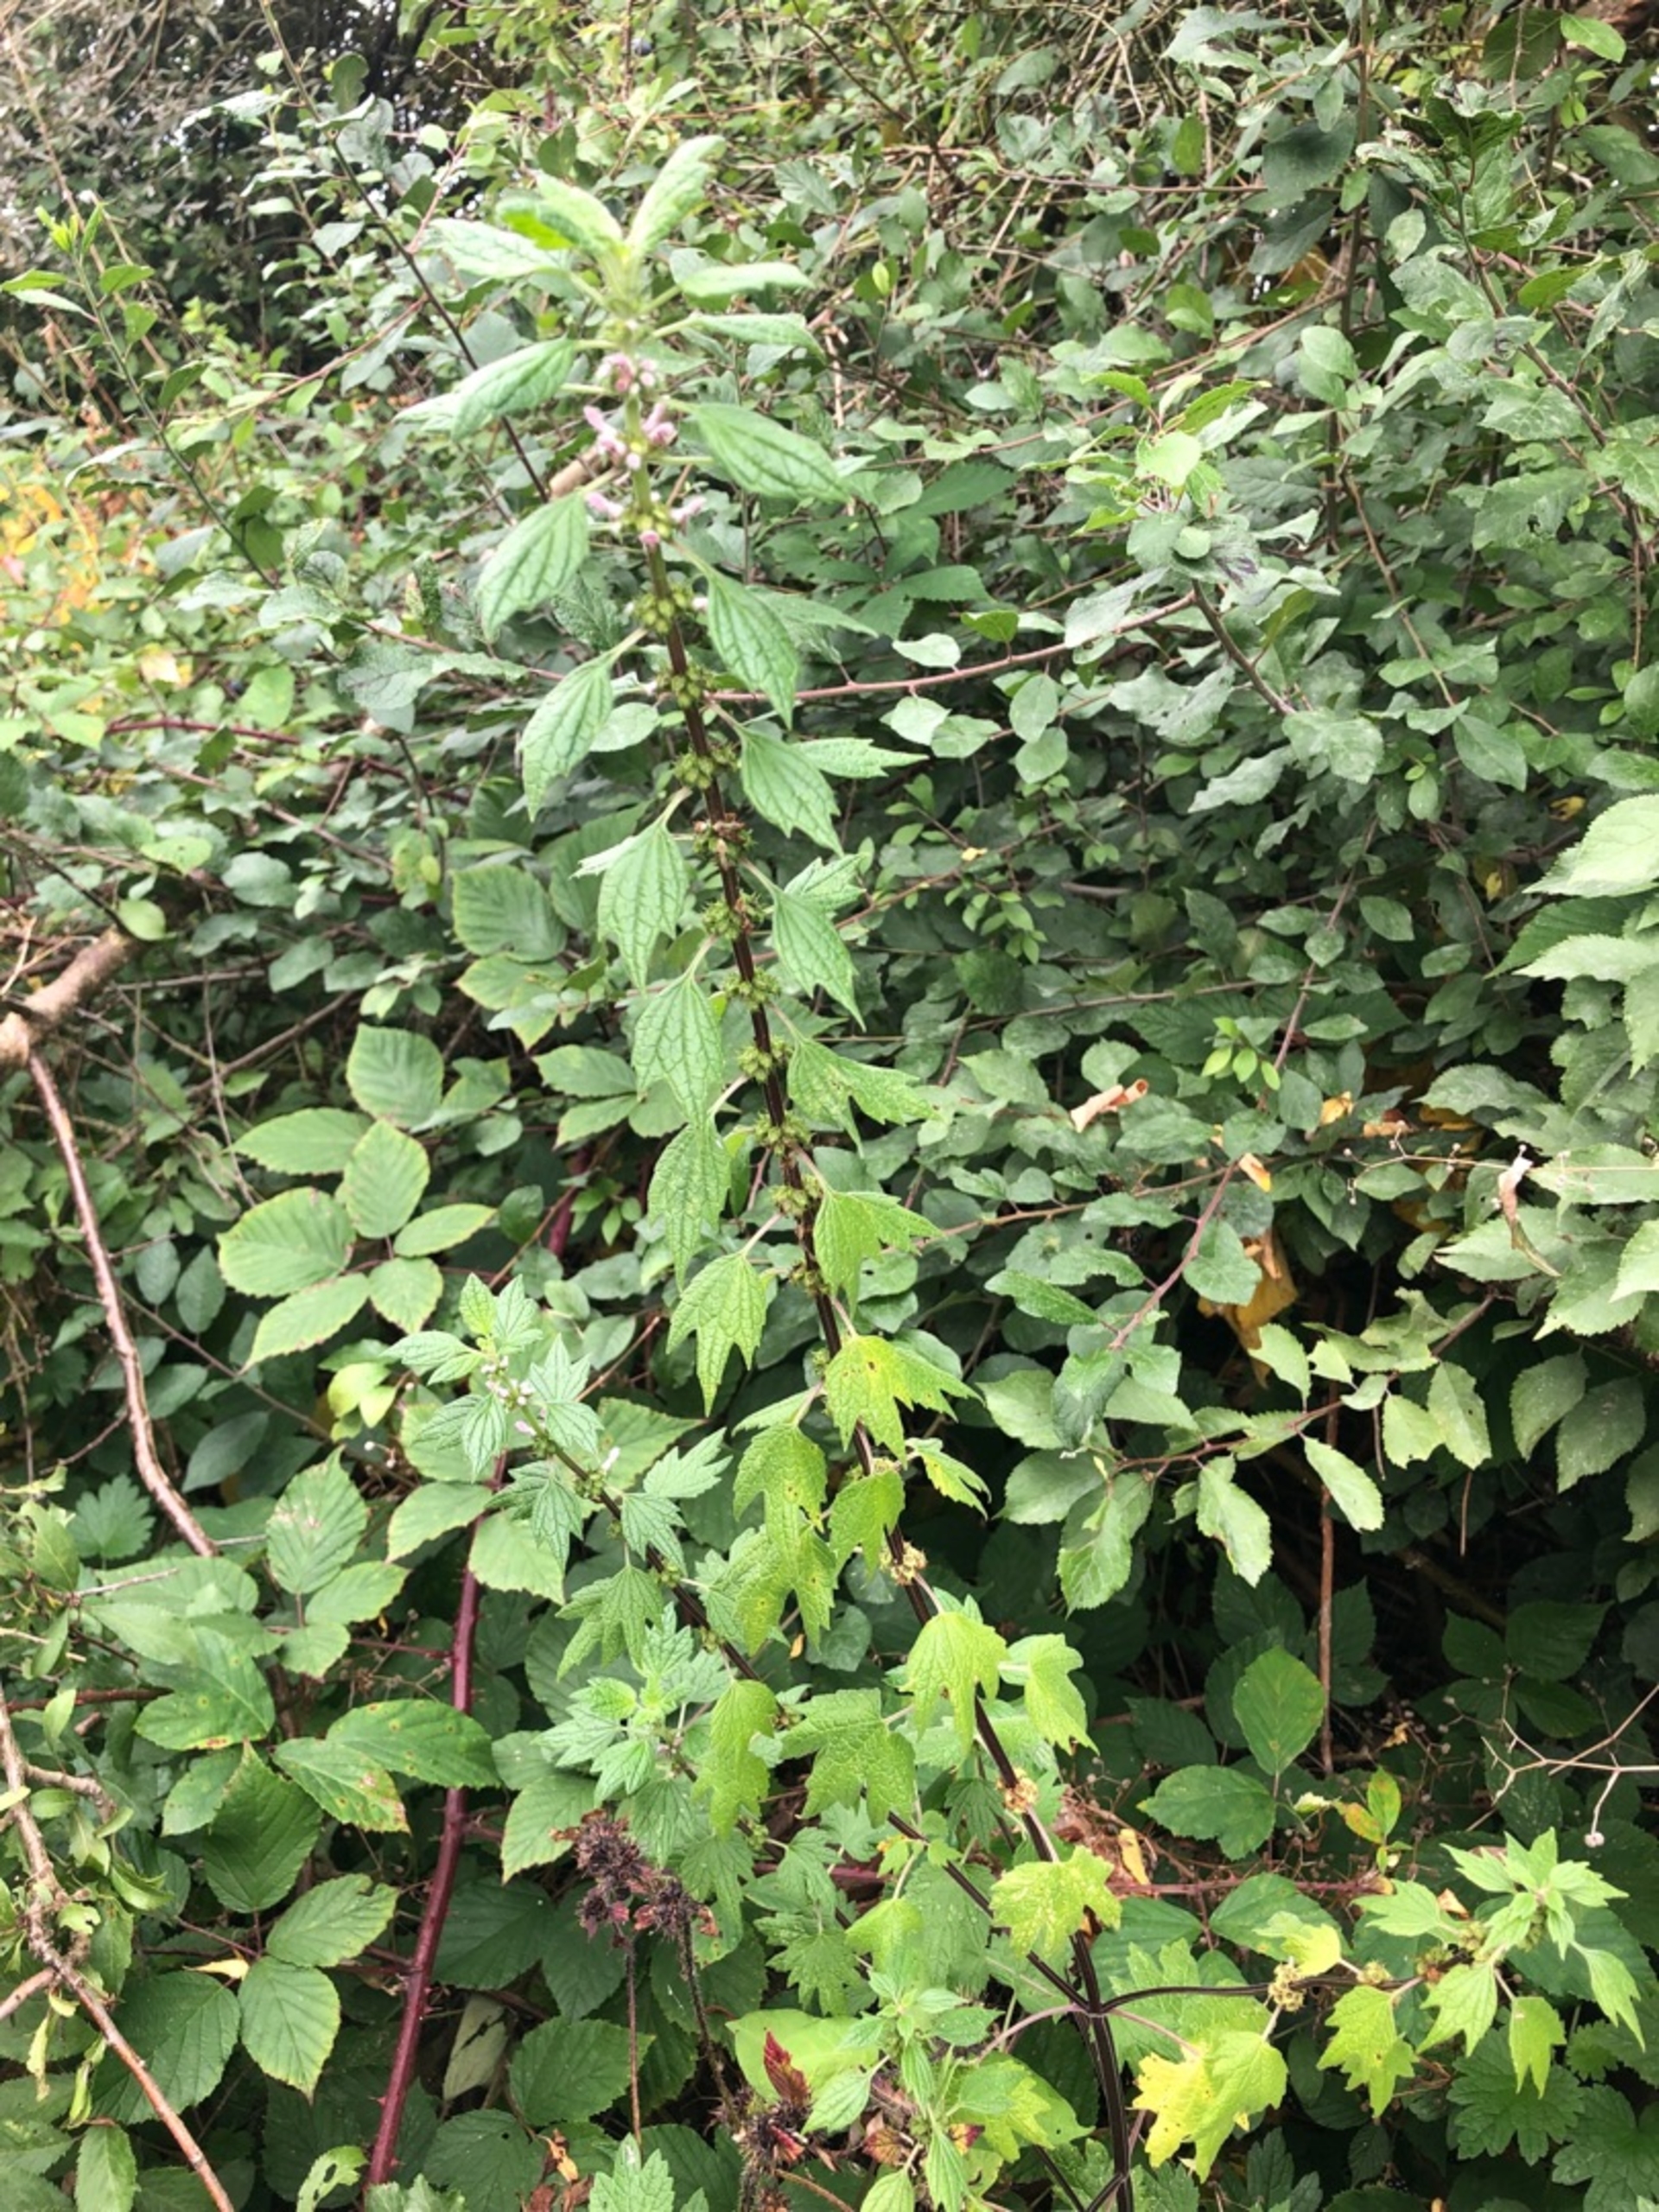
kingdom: Plantae
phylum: Tracheophyta
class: Magnoliopsida
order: Lamiales
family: Lamiaceae
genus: Leonurus
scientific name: Leonurus cardiaca
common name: Hjertespand
